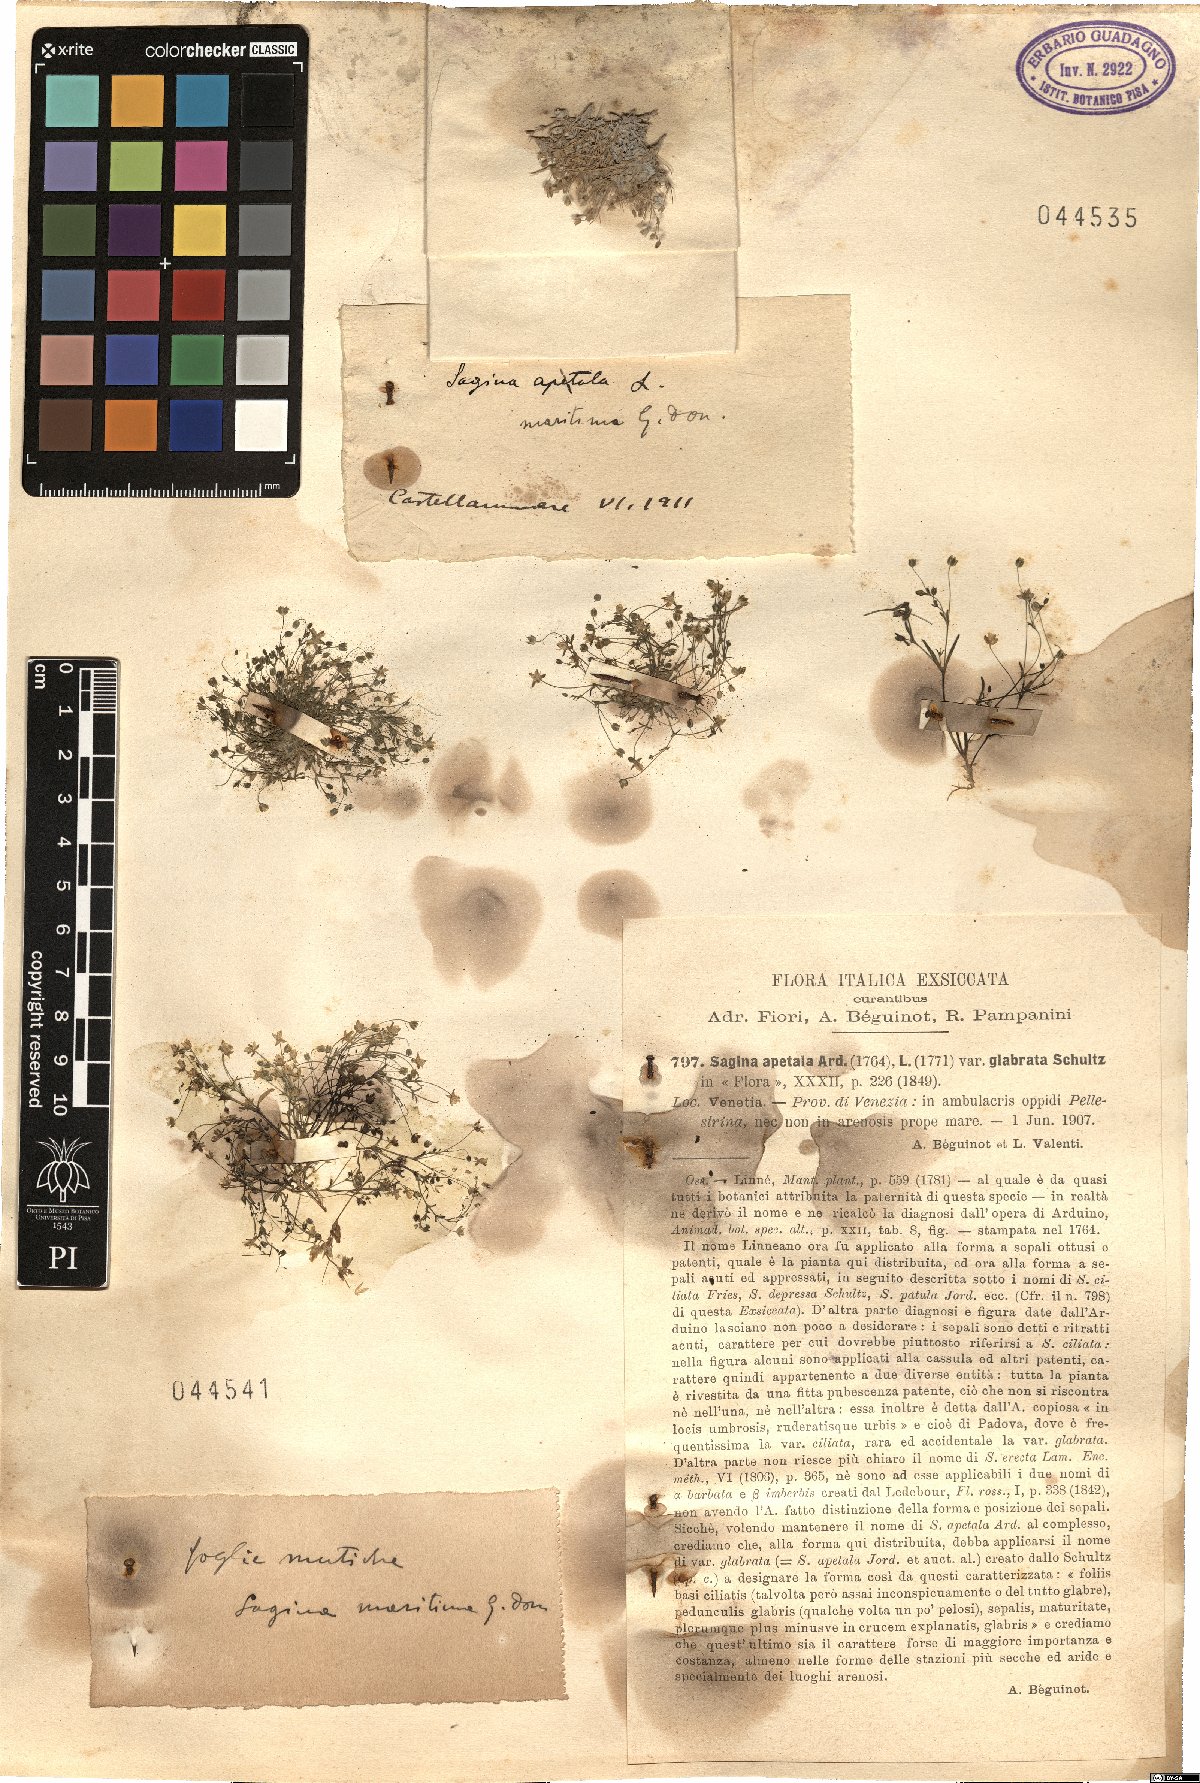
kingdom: Plantae
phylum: Tracheophyta
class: Magnoliopsida
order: Caryophyllales
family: Caryophyllaceae
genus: Sagina
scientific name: Sagina maritima
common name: Sea pearlwort
